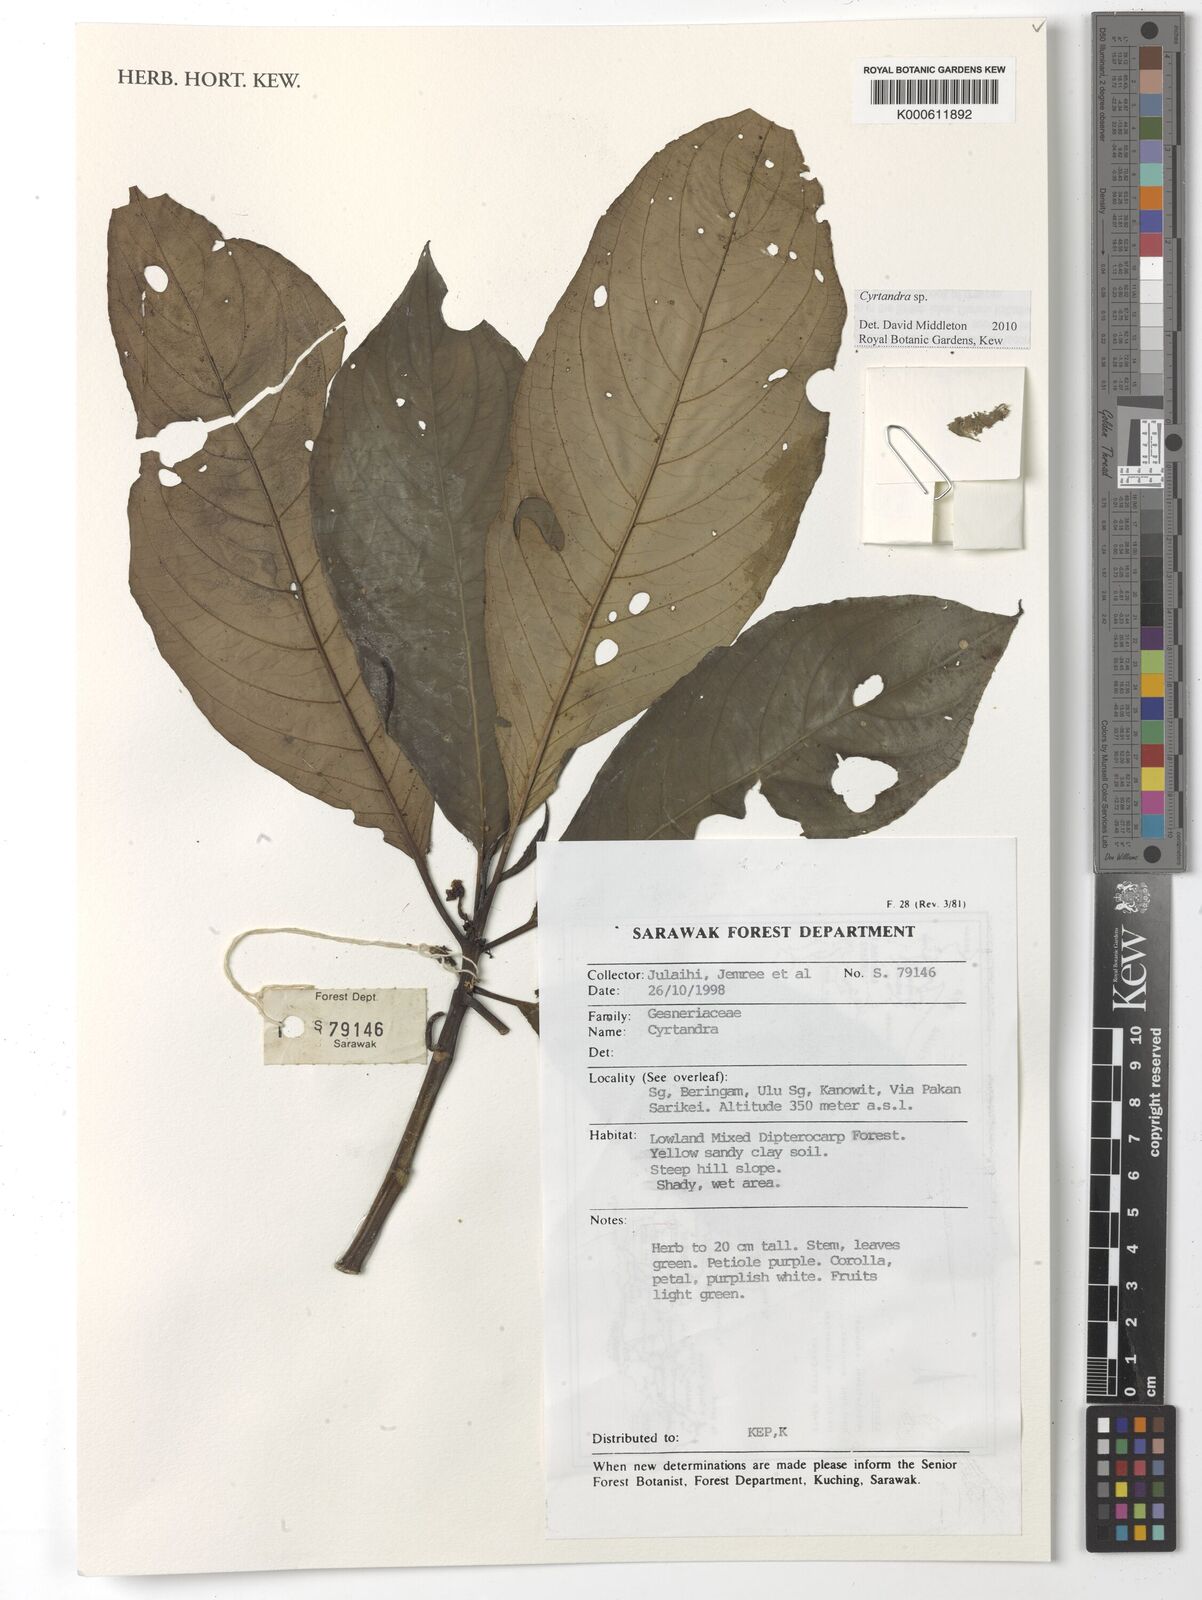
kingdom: Plantae
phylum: Tracheophyta
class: Magnoliopsida
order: Lamiales
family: Gesneriaceae
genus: Cyrtandra
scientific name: Cyrtandra
